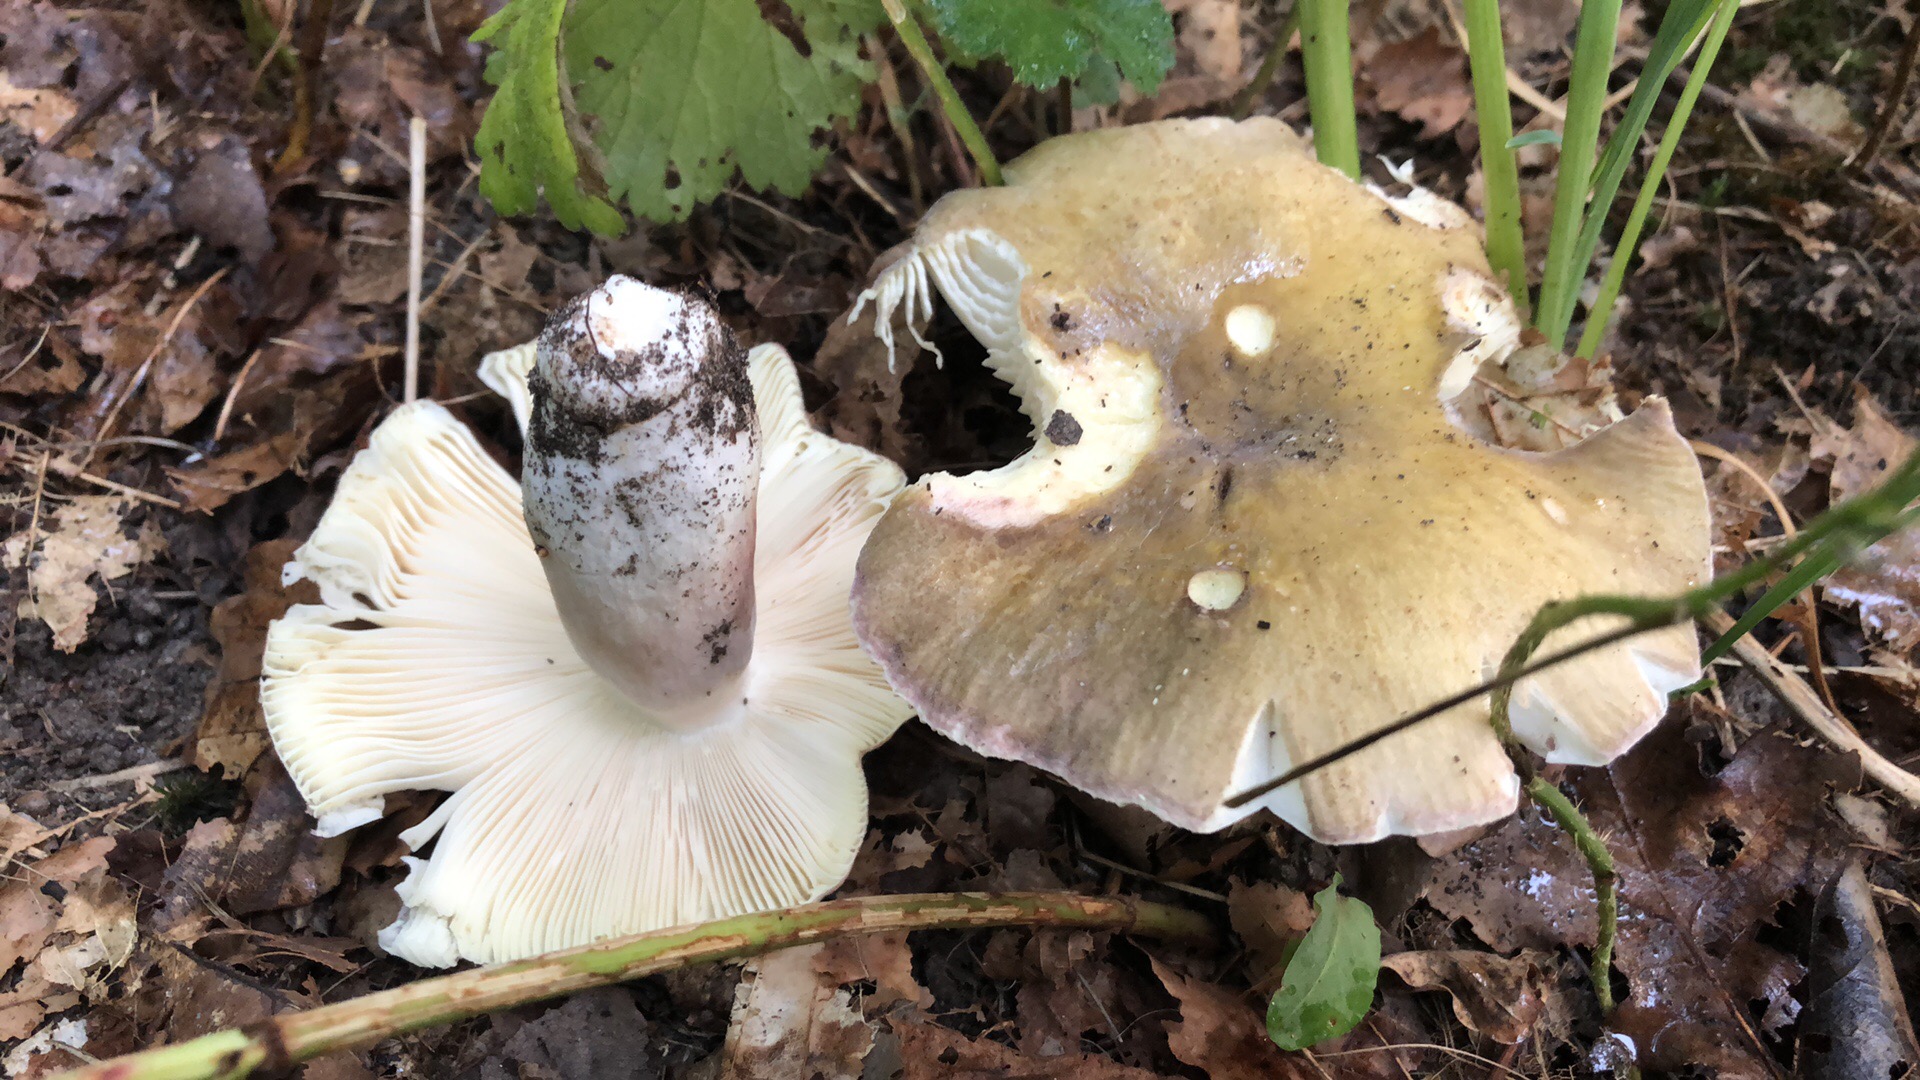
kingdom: Fungi
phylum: Basidiomycota
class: Agaricomycetes
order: Russulales
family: Russulaceae
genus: Russula
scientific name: Russula violeipes
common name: ferskengul skørhat
